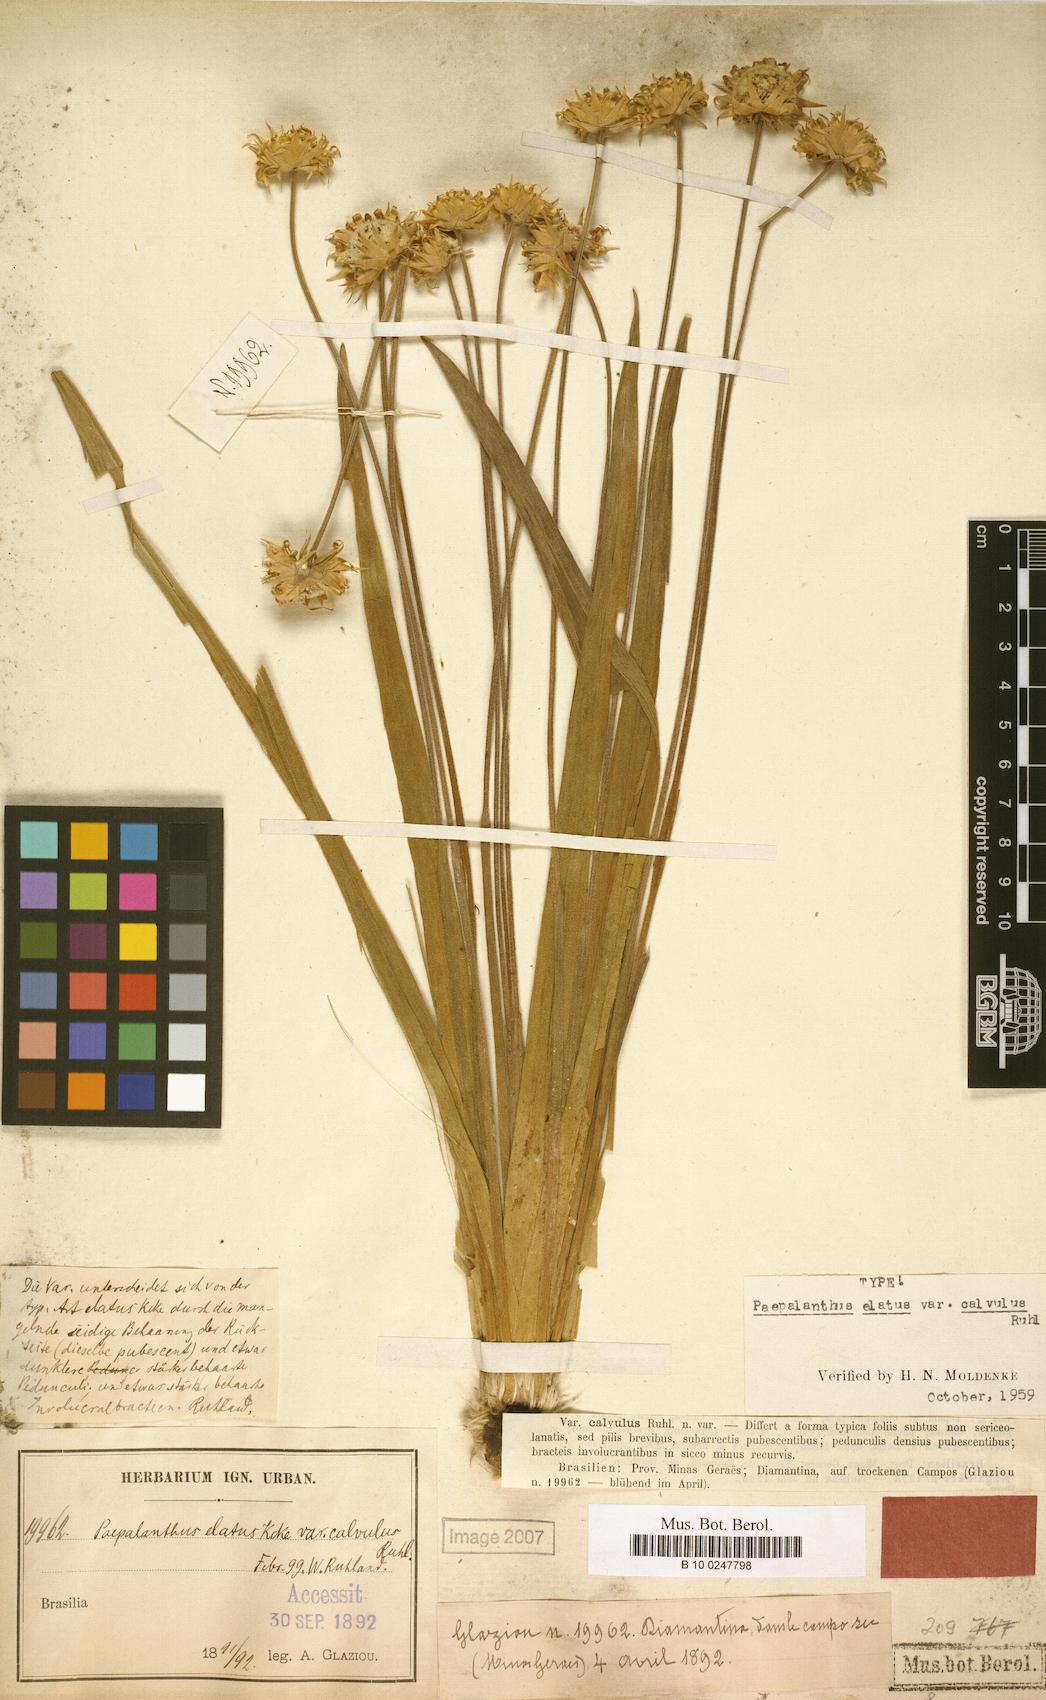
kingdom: Plantae
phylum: Tracheophyta
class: Liliopsida
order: Poales
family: Eriocaulaceae
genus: Paepalanthus
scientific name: Paepalanthus calvulus
